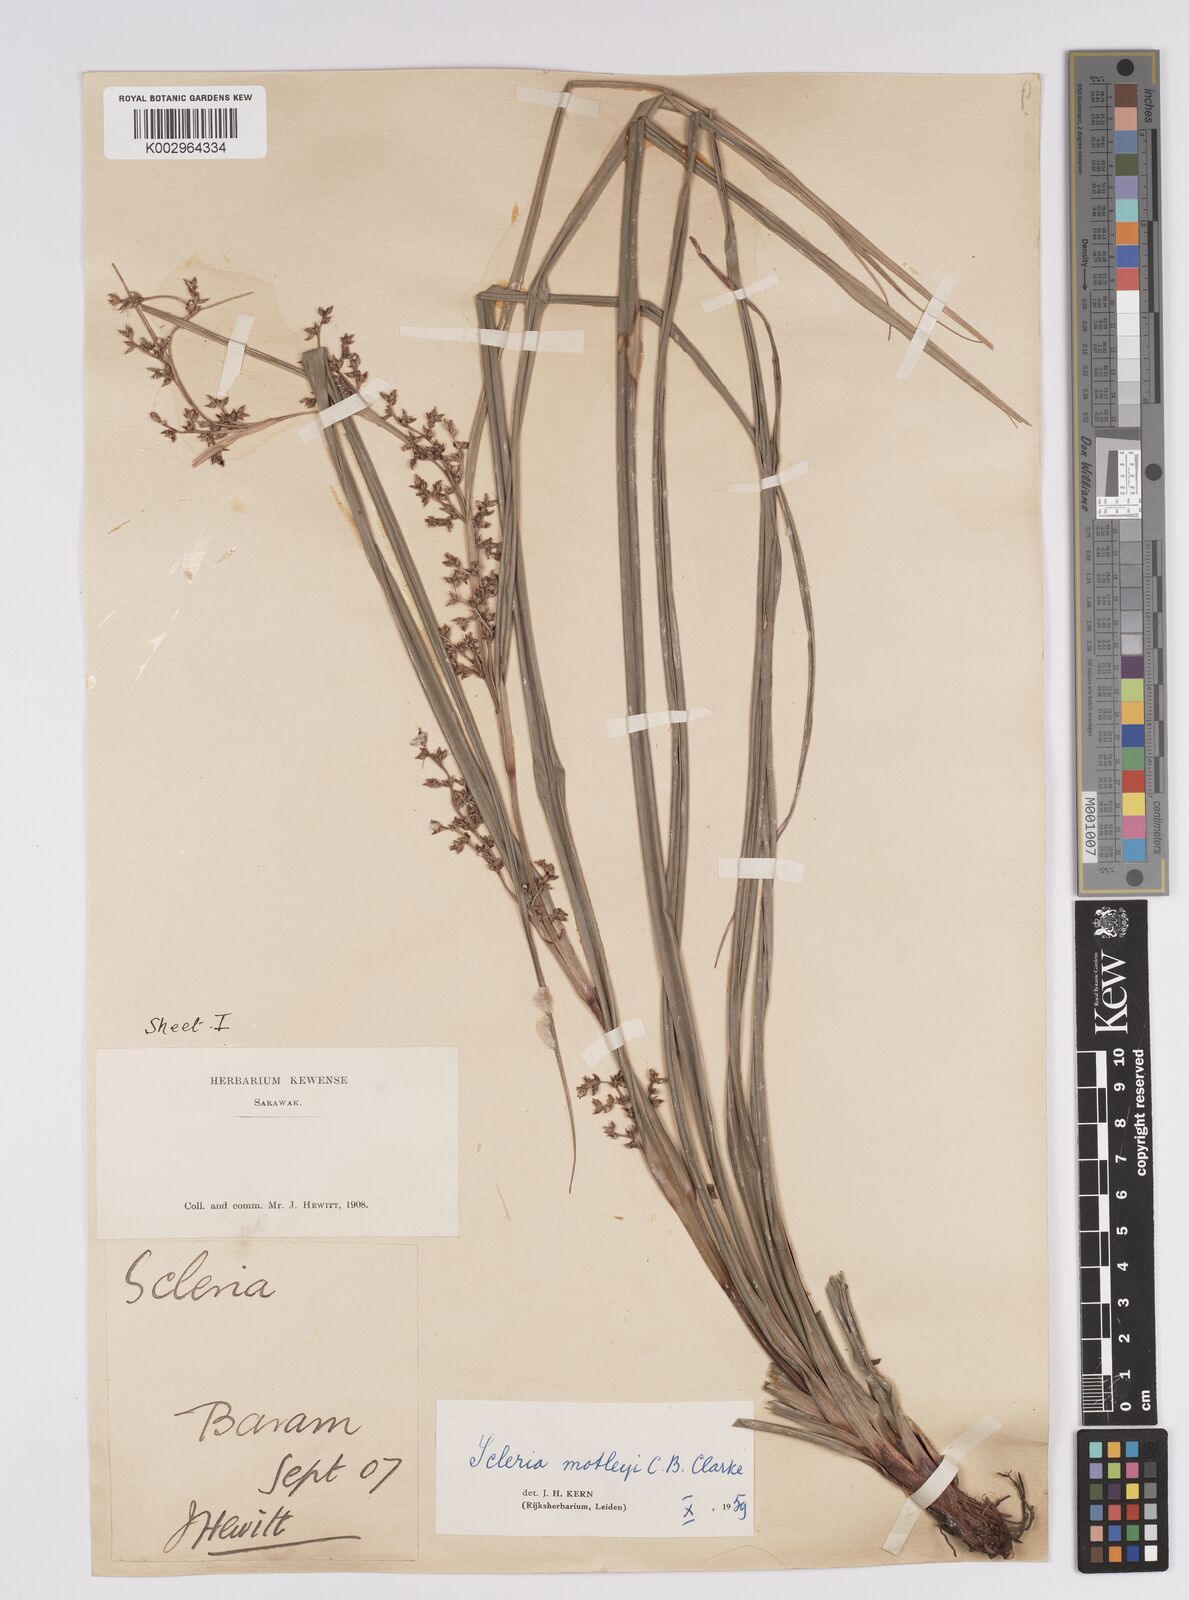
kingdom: Plantae
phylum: Tracheophyta
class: Liliopsida
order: Poales
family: Cyperaceae
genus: Scleria
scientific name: Scleria motleyi
